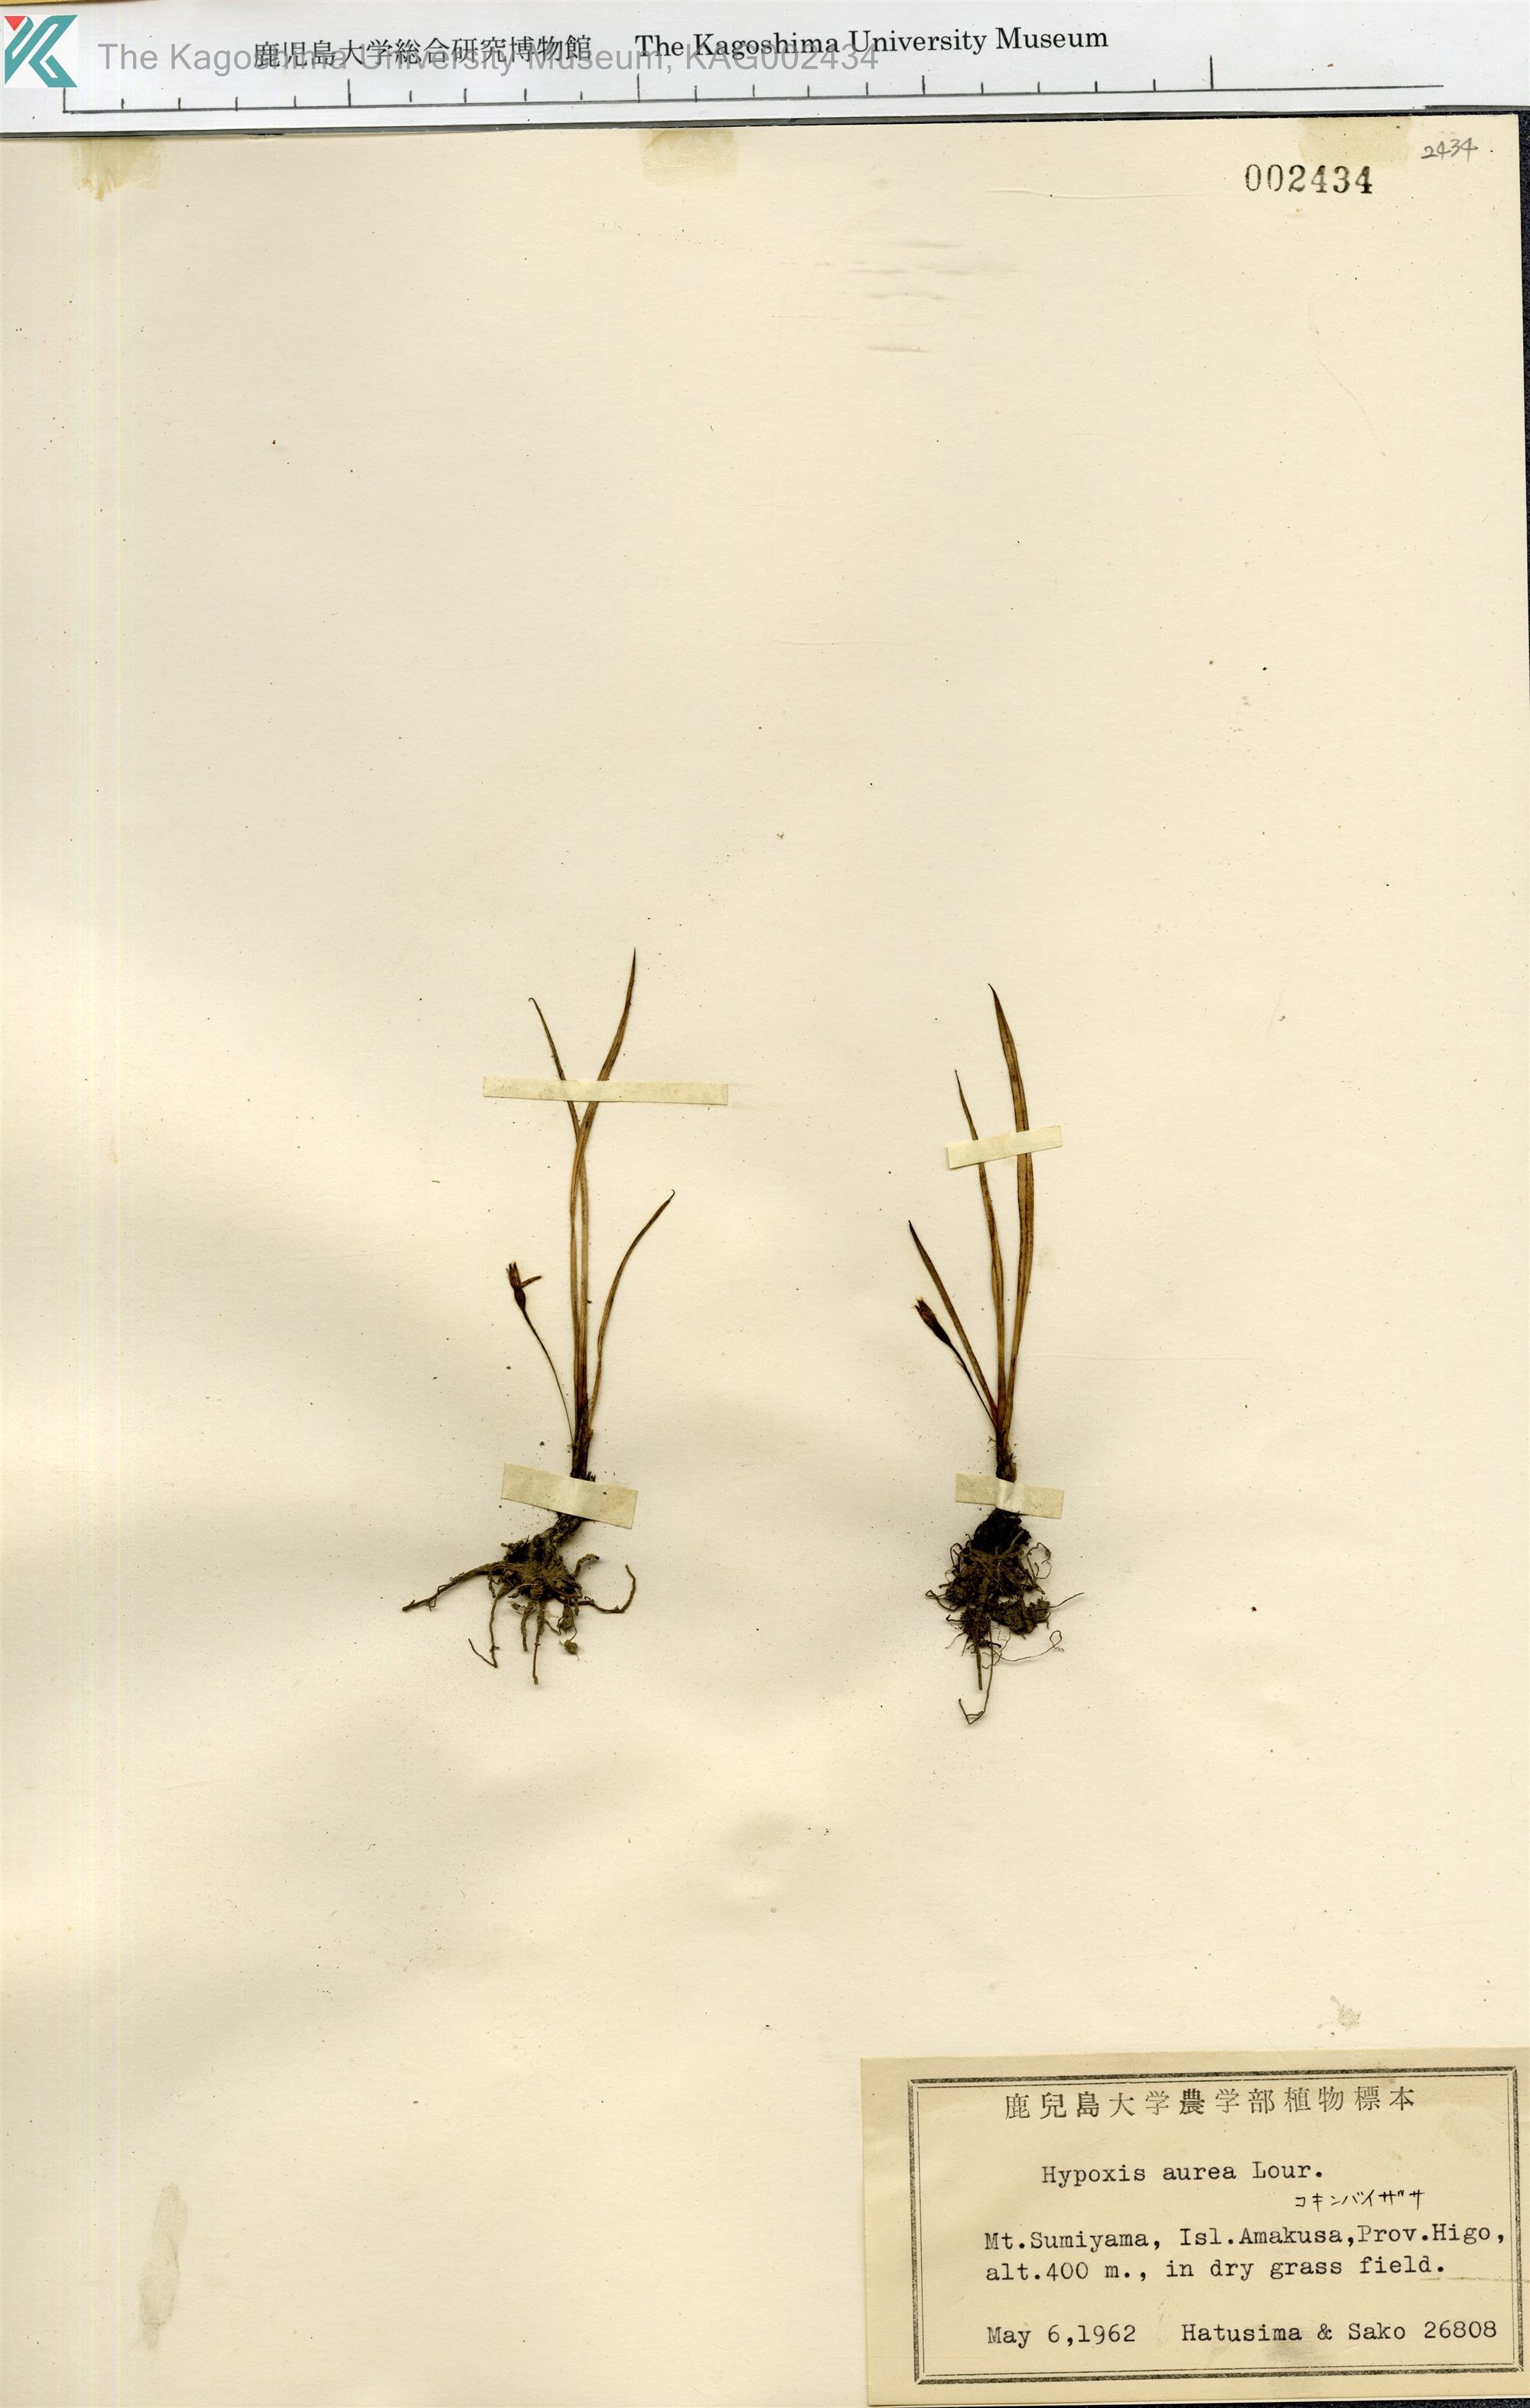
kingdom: Plantae
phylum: Tracheophyta
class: Liliopsida
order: Asparagales
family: Hypoxidaceae
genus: Hypoxis
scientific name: Hypoxis aurea
